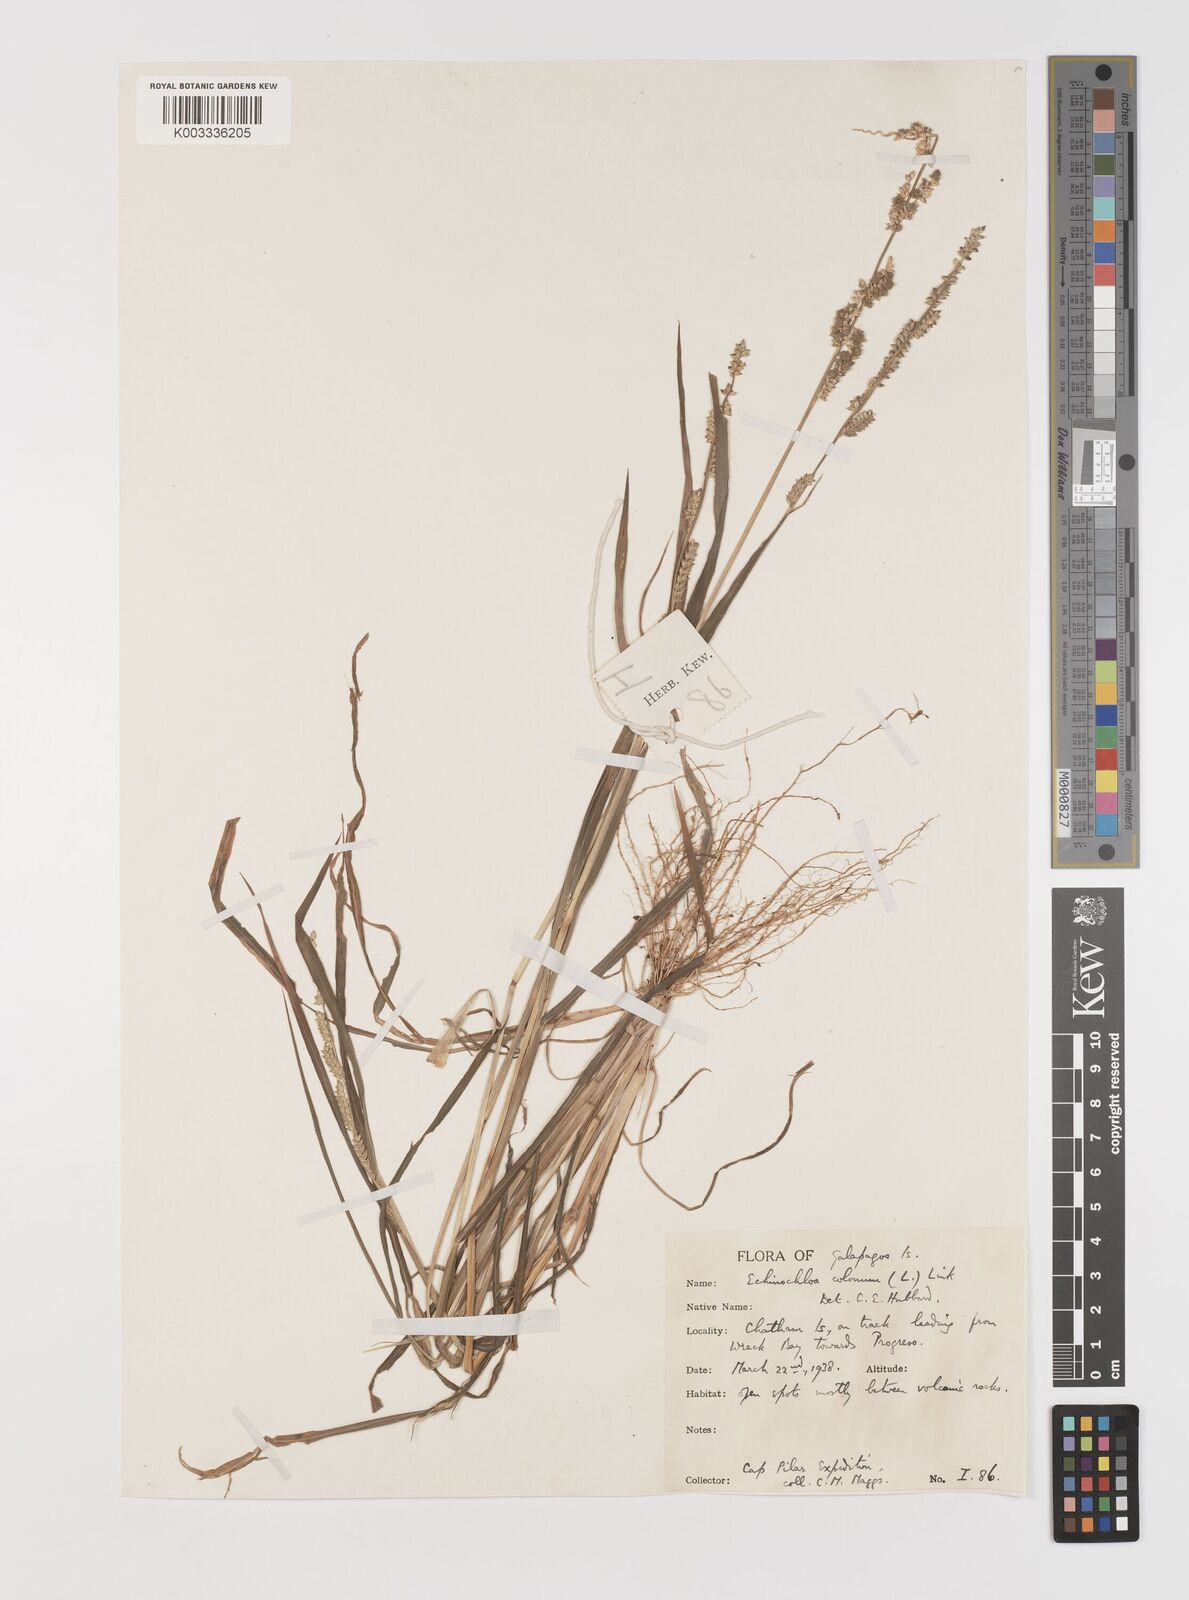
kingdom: Plantae
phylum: Tracheophyta
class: Liliopsida
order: Poales
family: Poaceae
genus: Echinochloa
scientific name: Echinochloa colonum
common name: Jungle rice
